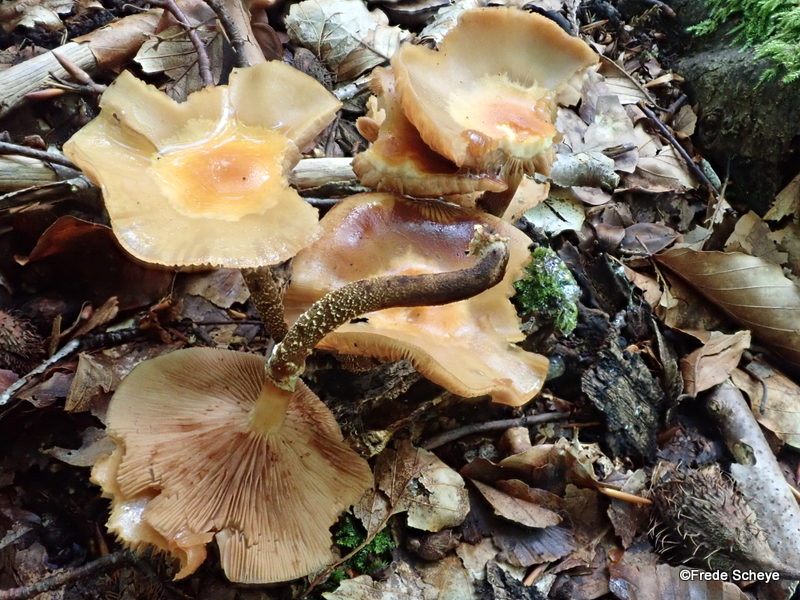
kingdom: Fungi
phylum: Basidiomycota
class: Agaricomycetes
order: Agaricales
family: Strophariaceae
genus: Kuehneromyces
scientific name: Kuehneromyces mutabilis
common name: foranderlig skælhat
